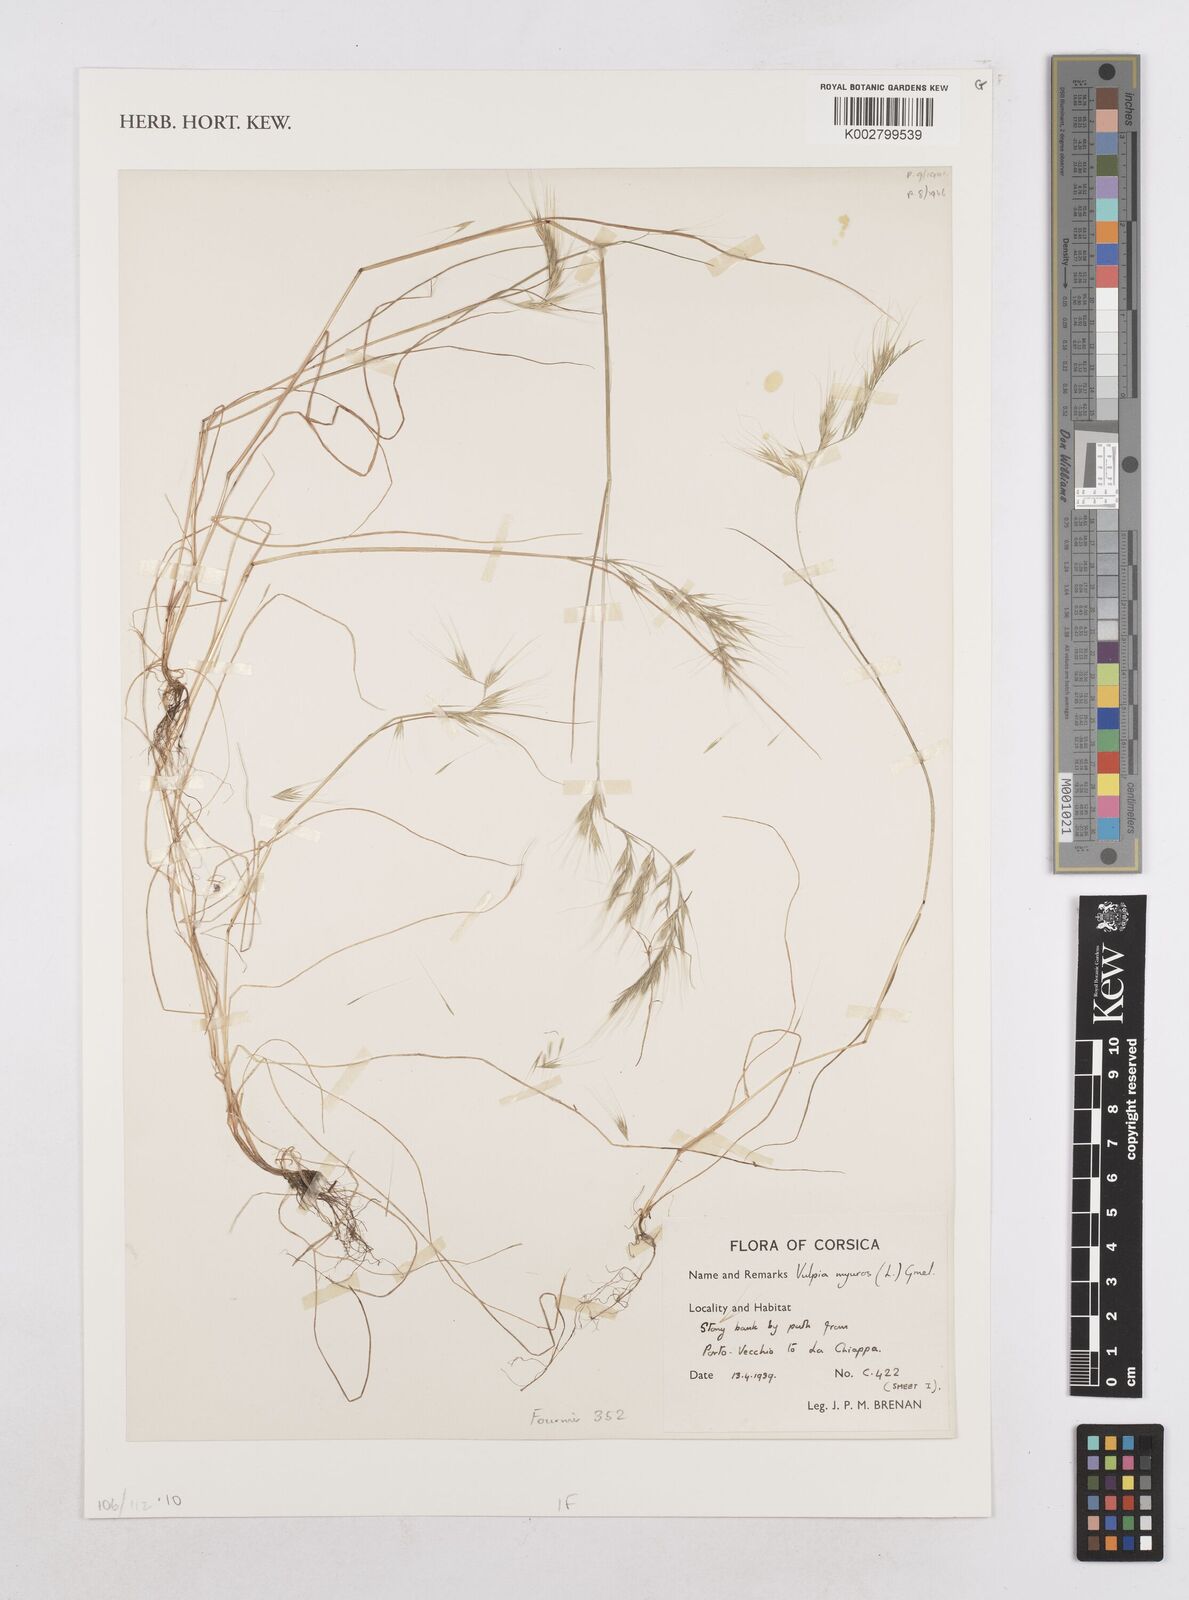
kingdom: Plantae
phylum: Tracheophyta
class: Liliopsida
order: Poales
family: Poaceae
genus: Festuca
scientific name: Festuca myuros
